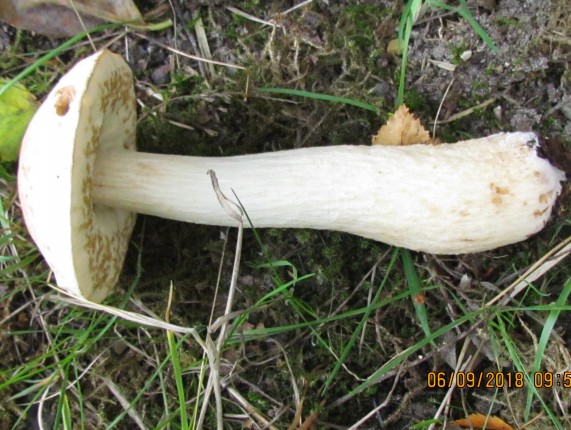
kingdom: Fungi
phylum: Basidiomycota
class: Agaricomycetes
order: Boletales
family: Boletaceae
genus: Leccinum
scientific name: Leccinum
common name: skælrørhat
